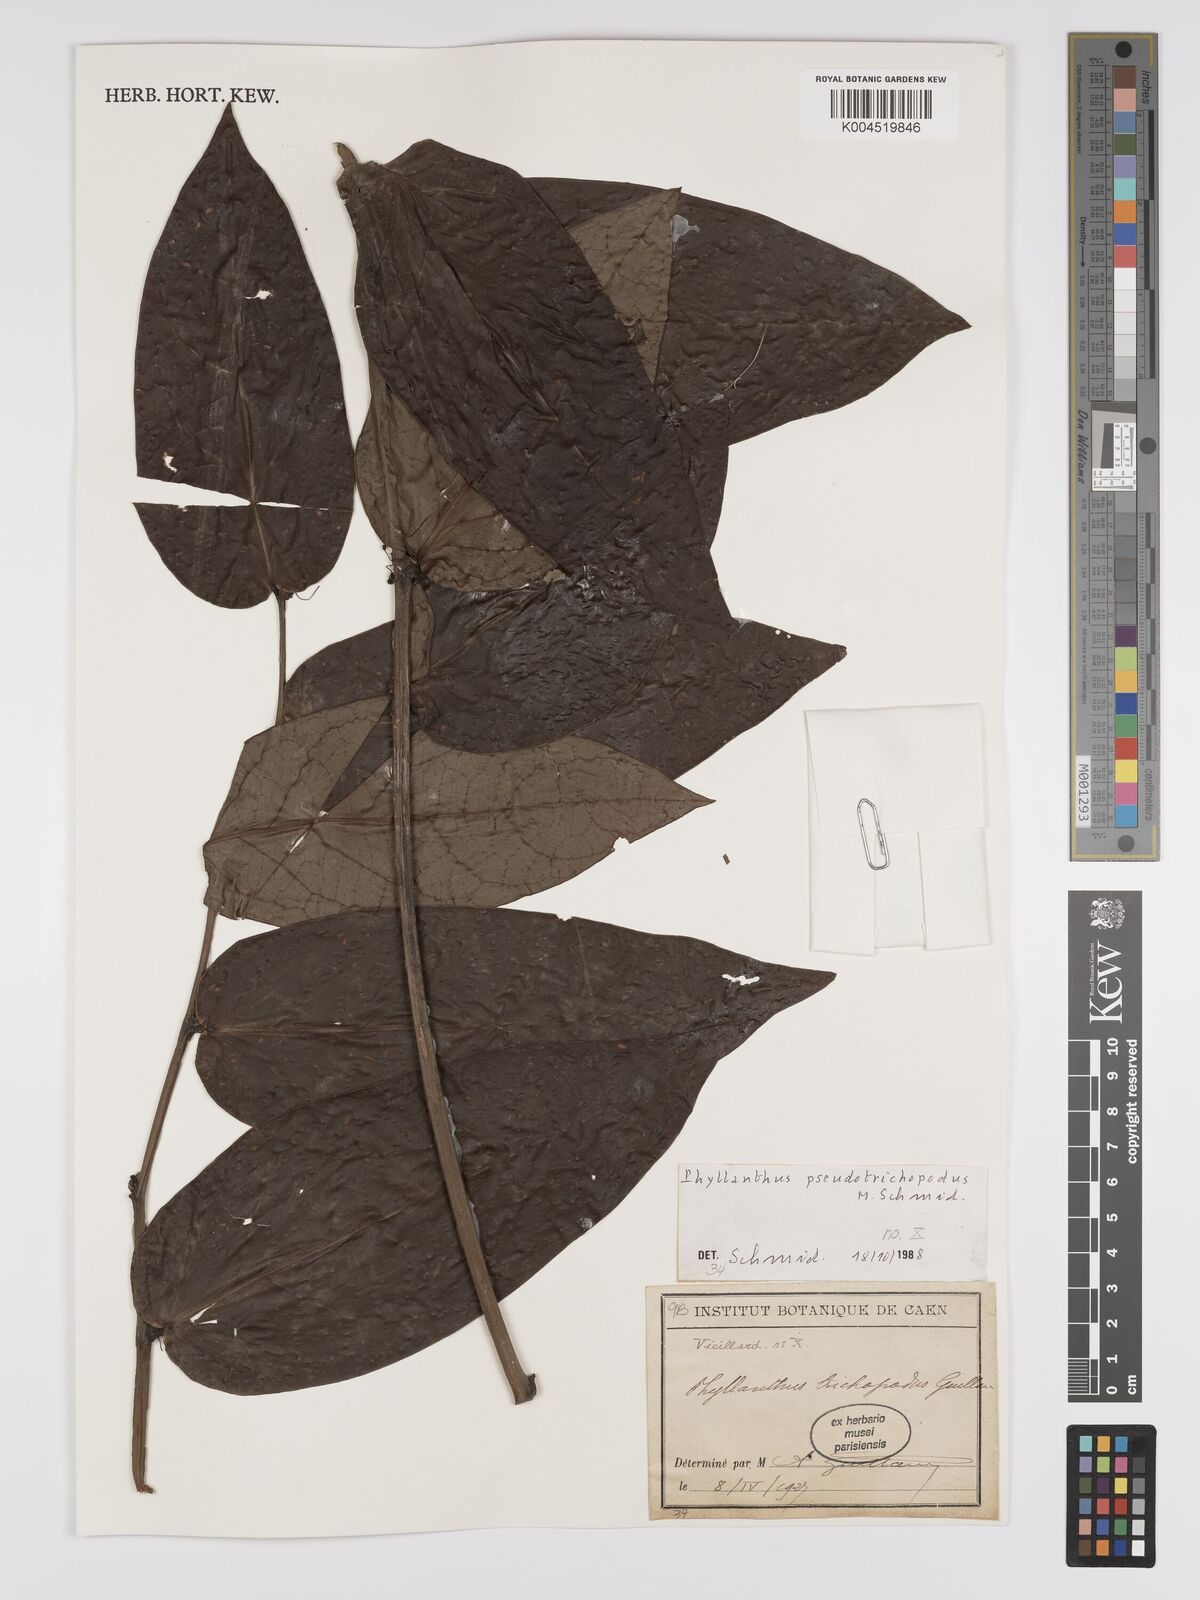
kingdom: Plantae
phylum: Tracheophyta
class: Magnoliopsida
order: Malpighiales
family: Phyllanthaceae
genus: Phyllanthus
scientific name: Phyllanthus pseudotrichopodus
